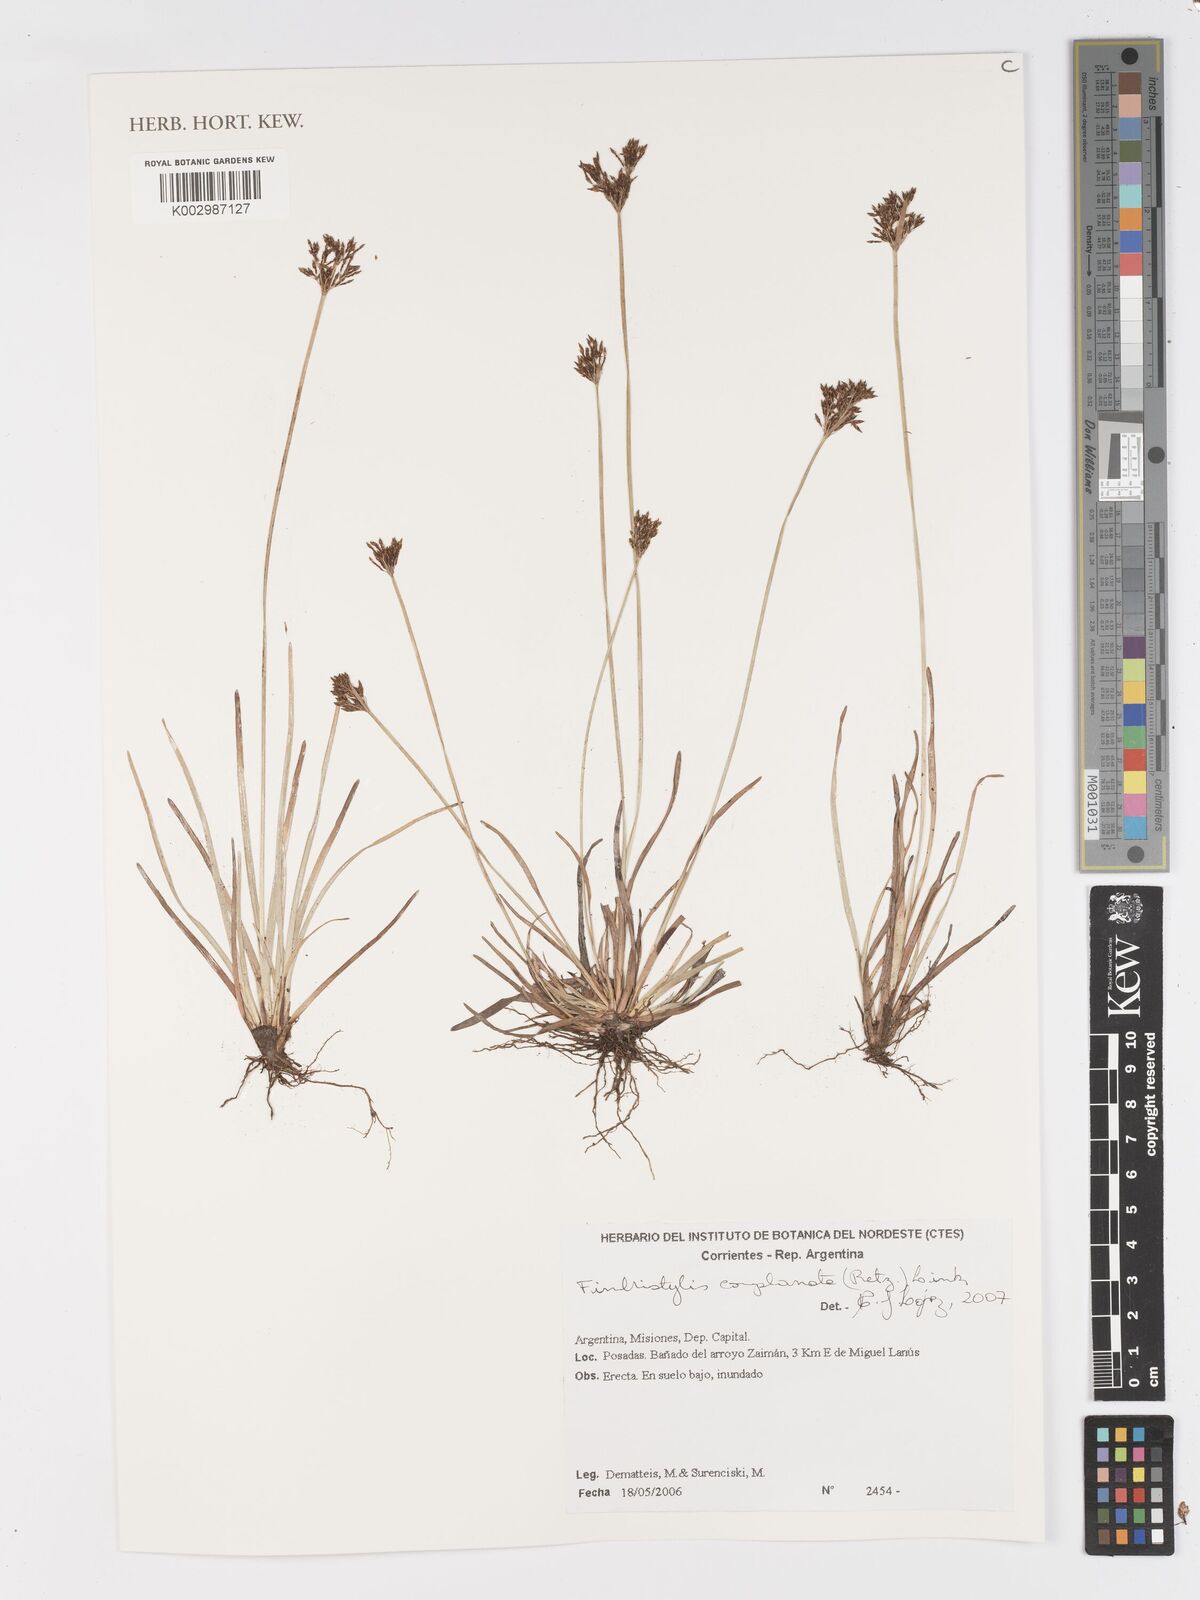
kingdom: Plantae
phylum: Tracheophyta
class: Liliopsida
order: Poales
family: Cyperaceae
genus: Fimbristylis
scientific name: Fimbristylis complanata
